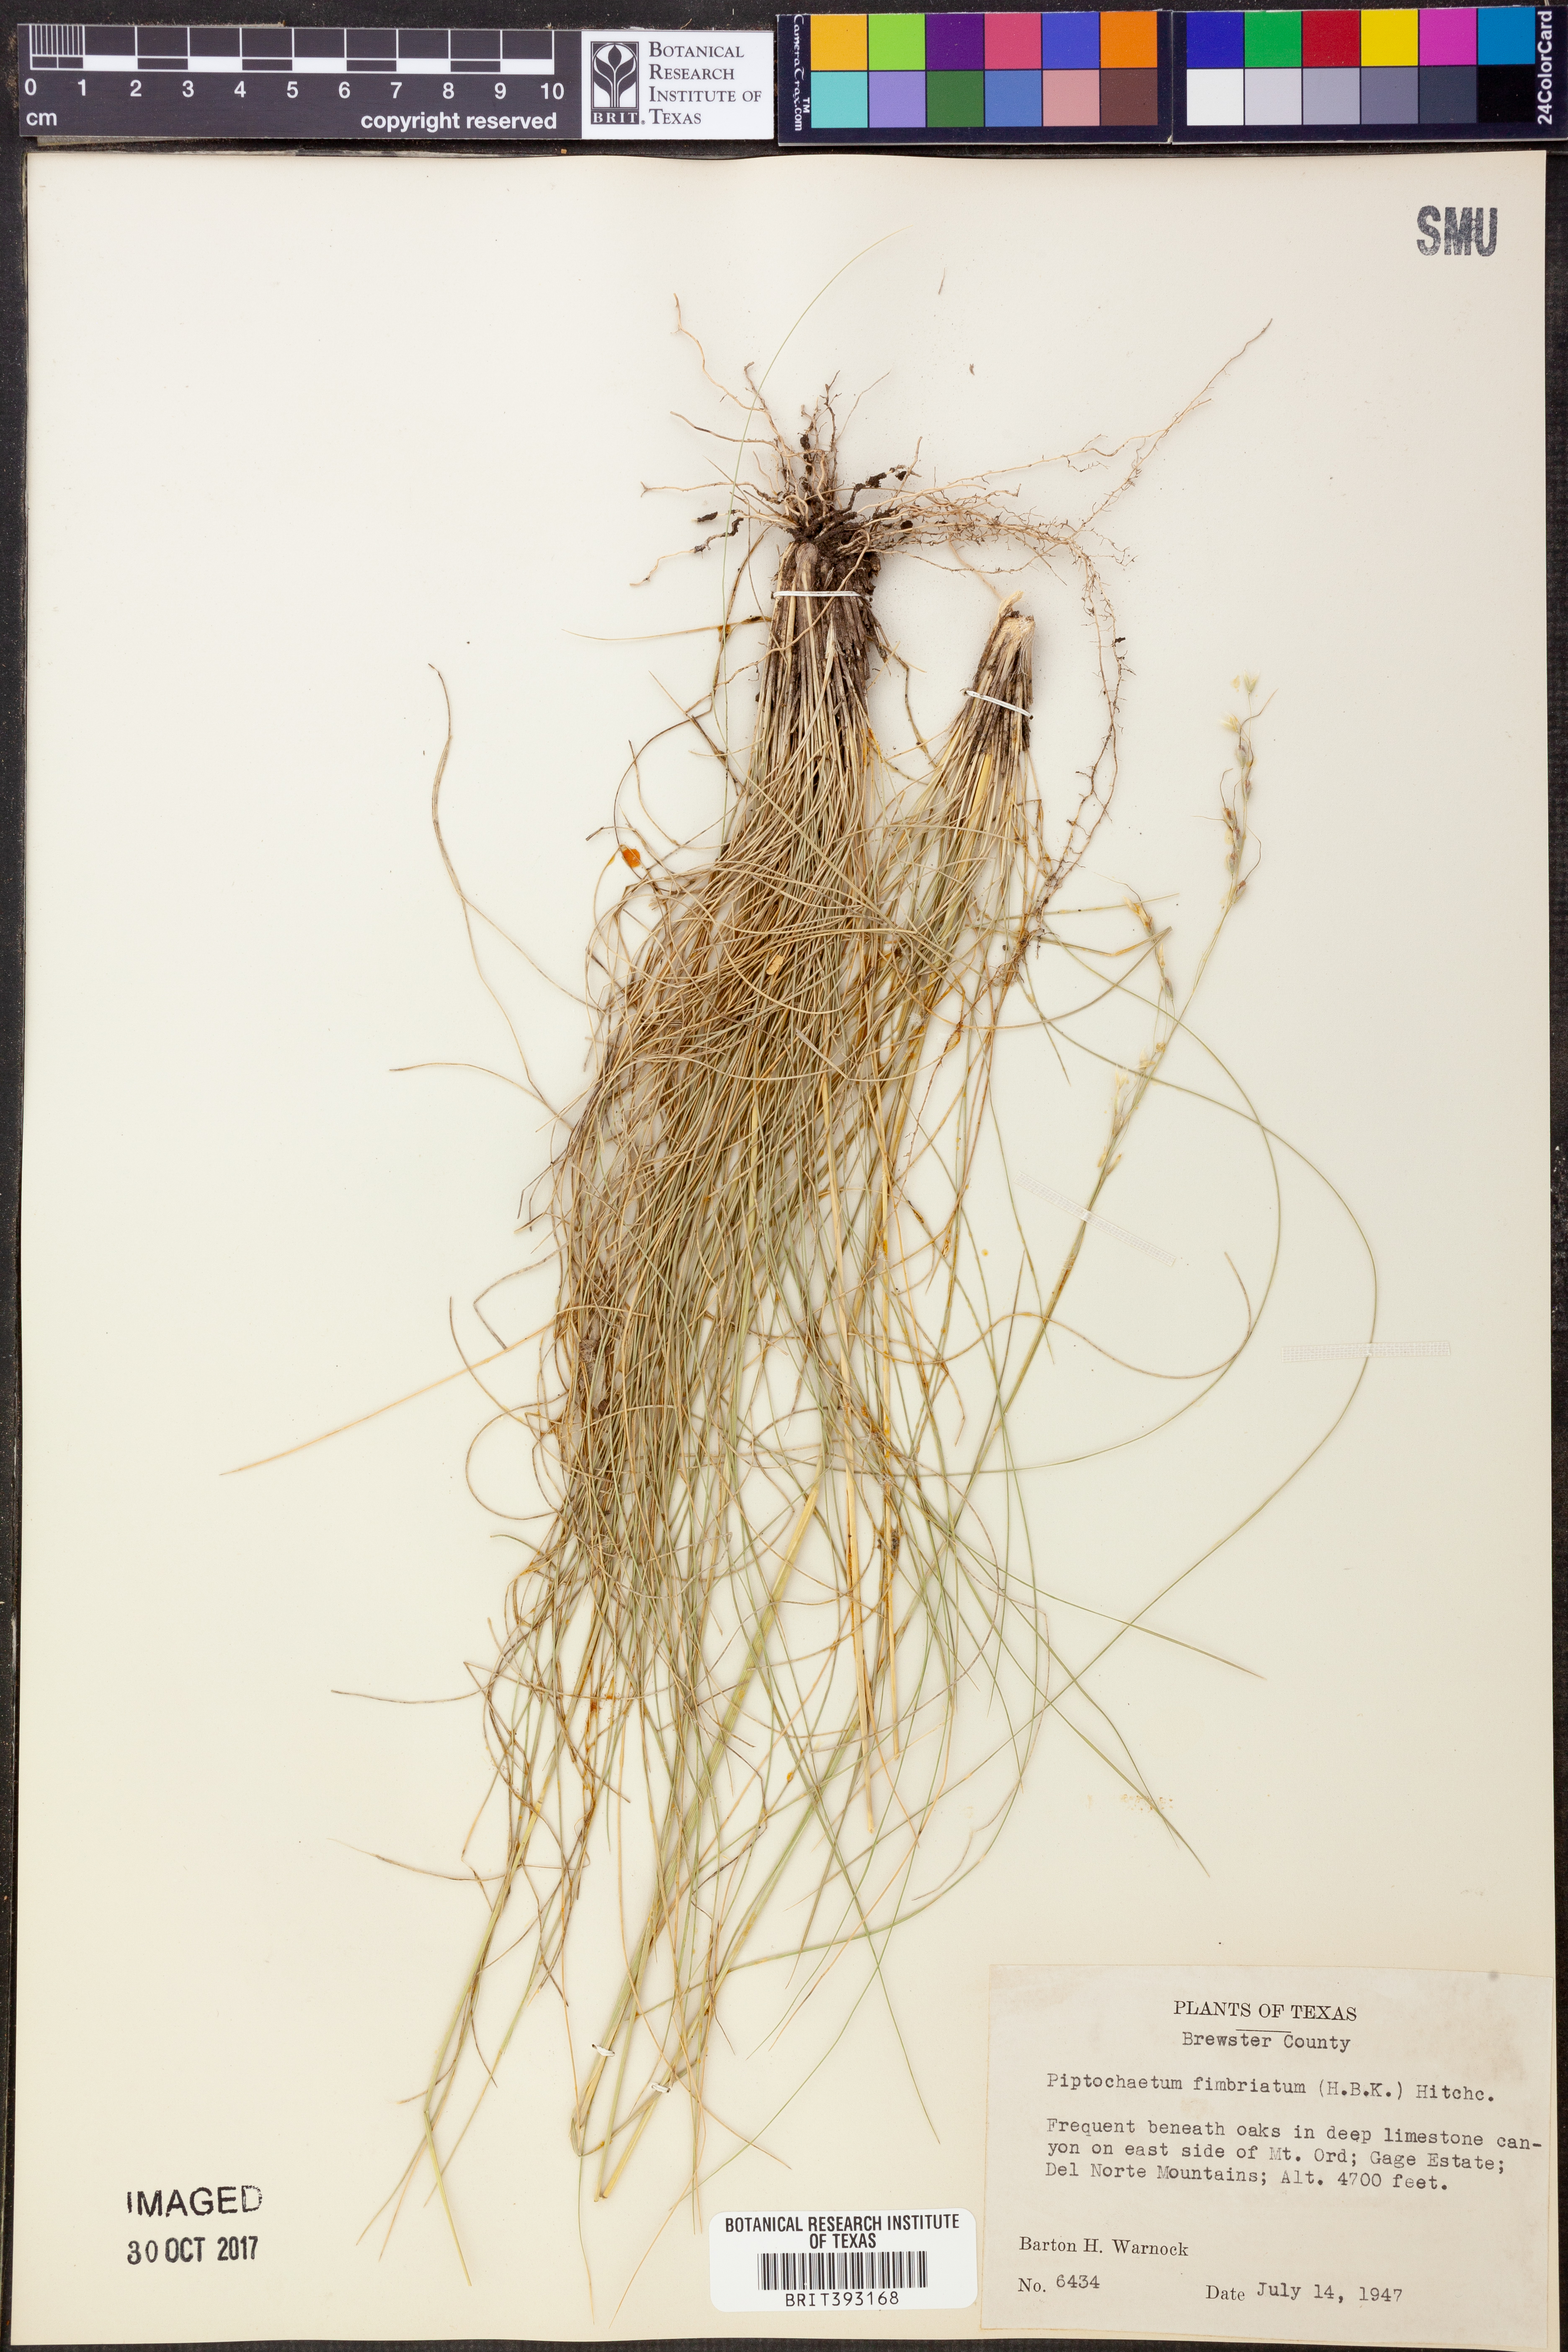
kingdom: Plantae
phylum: Tracheophyta
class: Liliopsida
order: Poales
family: Poaceae
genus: Piptochaetium
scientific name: Piptochaetium fimbriatum
